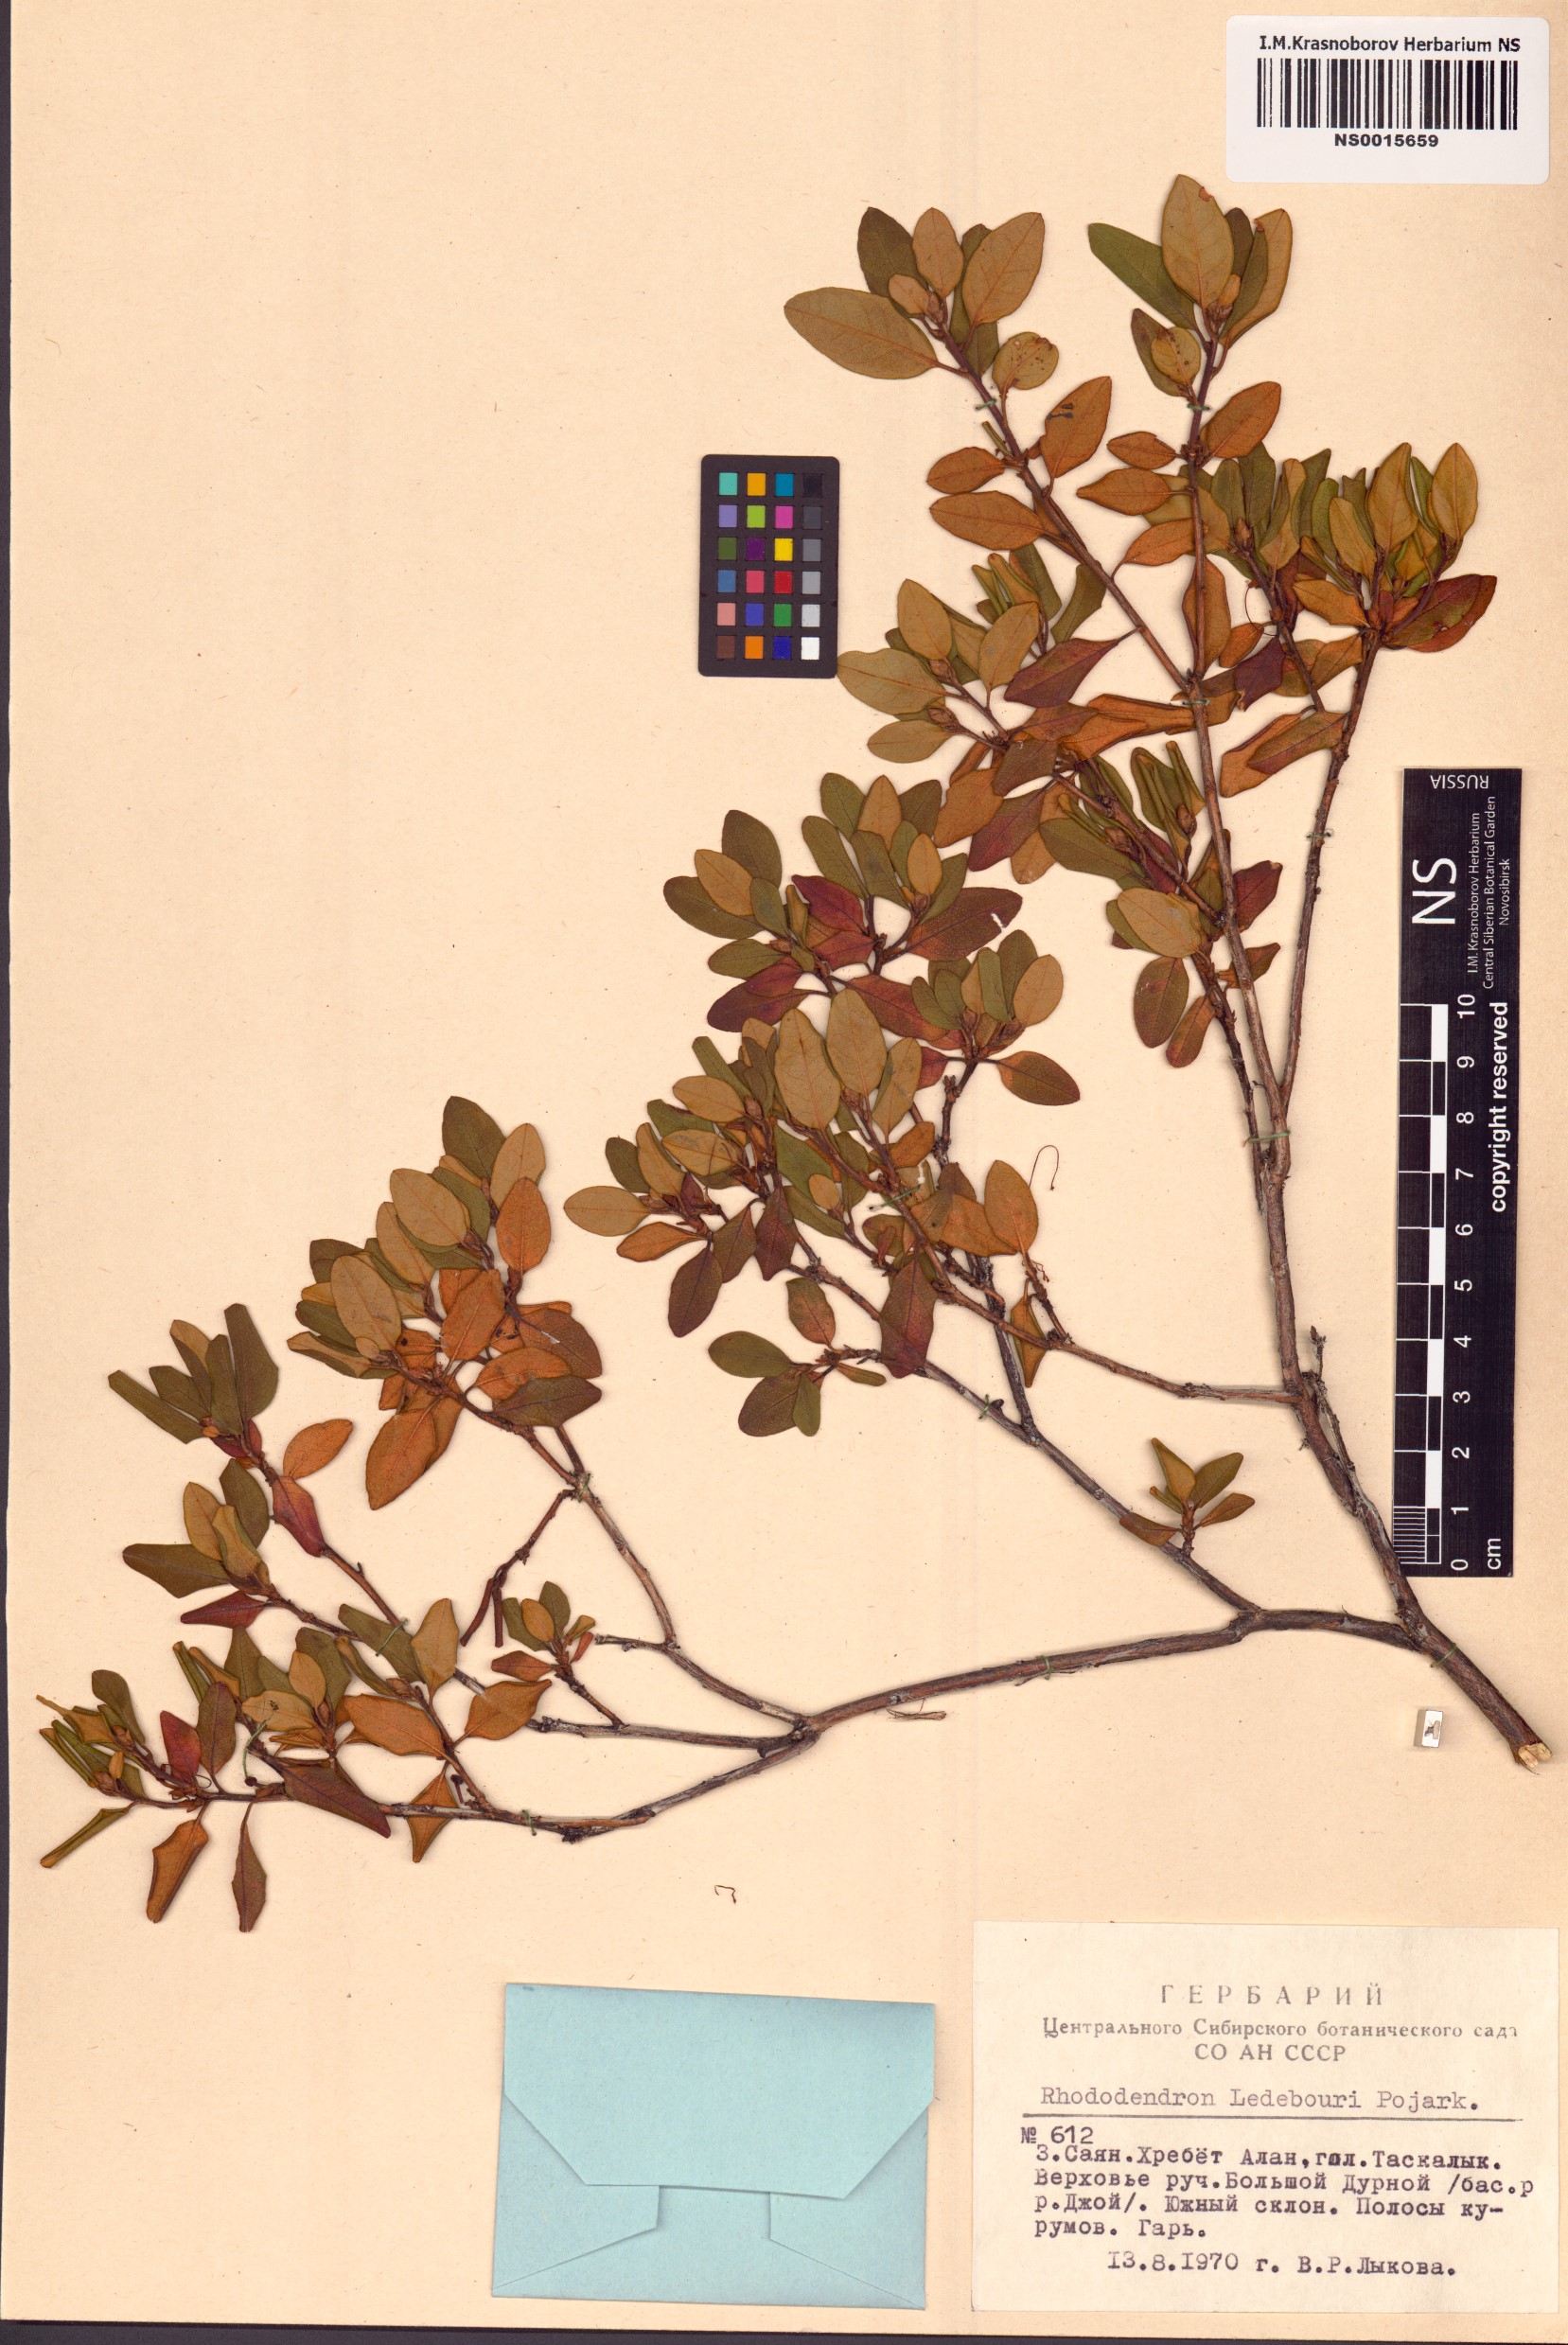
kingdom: Plantae
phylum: Tracheophyta
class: Magnoliopsida
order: Ericales
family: Ericaceae
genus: Rhododendron
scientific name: Rhododendron dauricum
